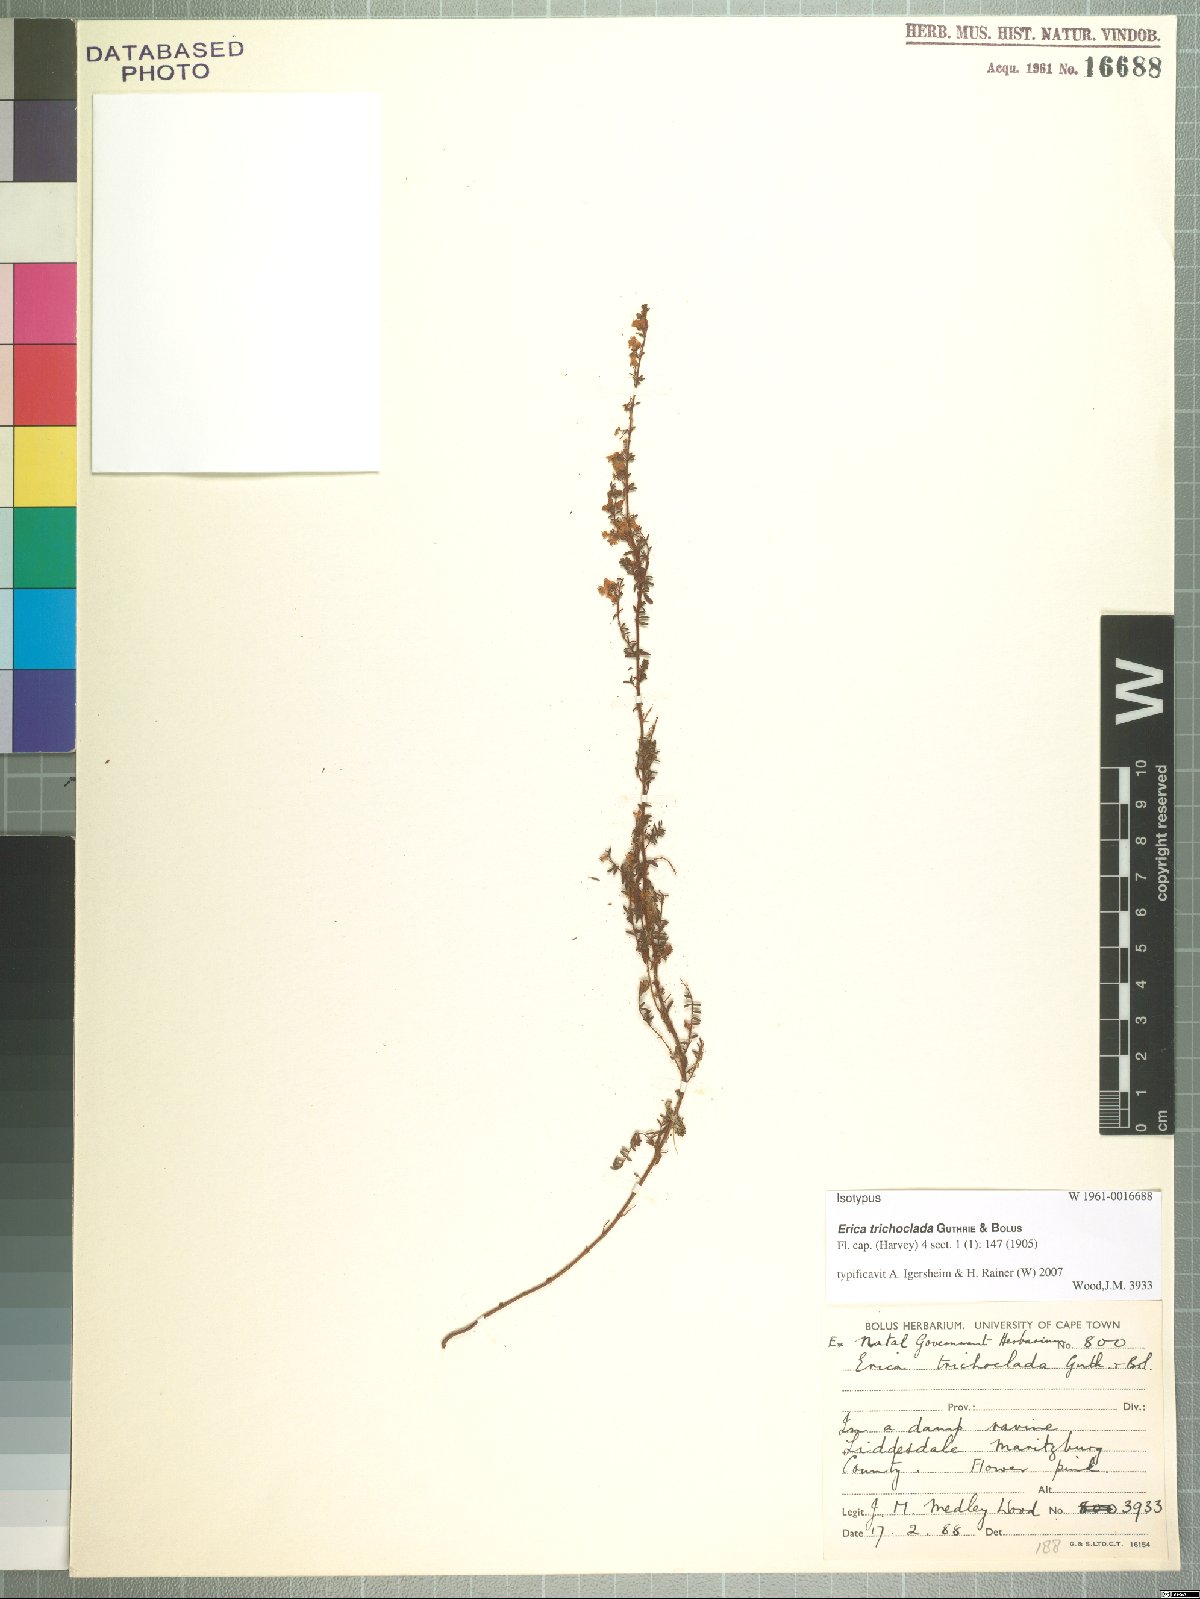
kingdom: Plantae
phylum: Tracheophyta
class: Magnoliopsida
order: Ericales
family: Ericaceae
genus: Erica
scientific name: Erica trichoclada
